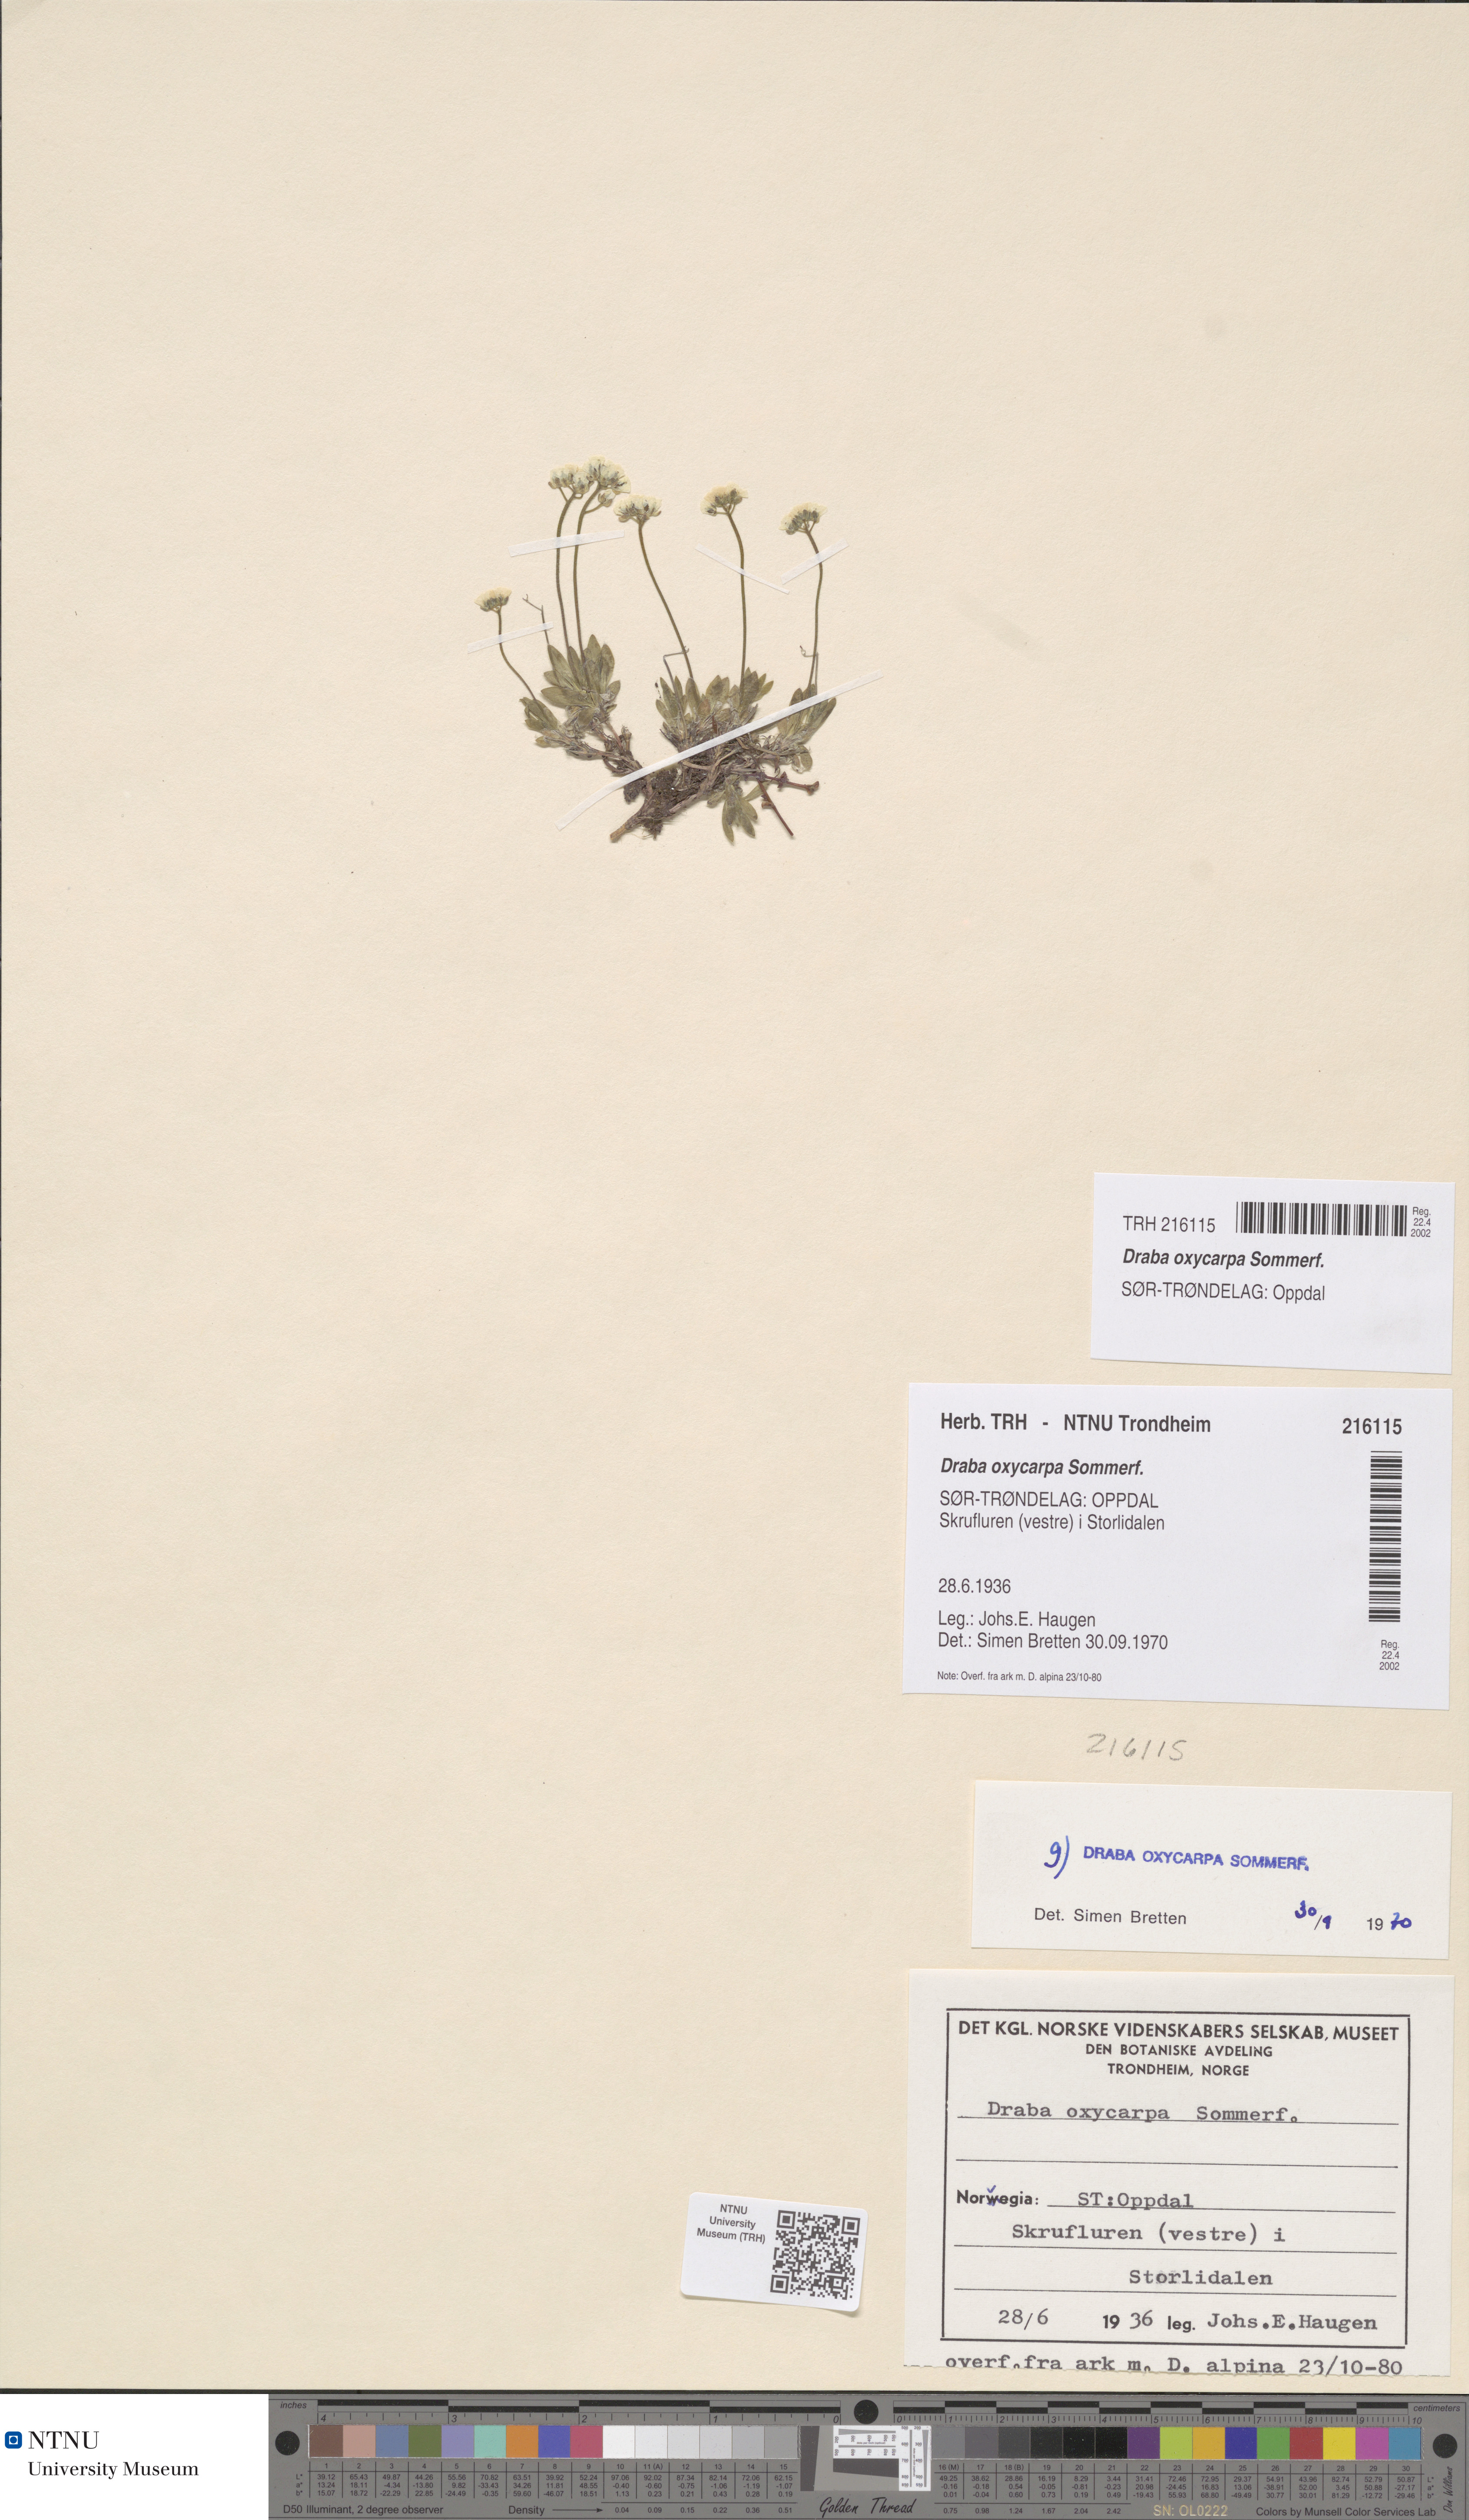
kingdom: Plantae
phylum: Tracheophyta
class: Magnoliopsida
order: Brassicales
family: Brassicaceae
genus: Draba
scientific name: Draba oxycarpa
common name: Sharp-fruited whitlow-grass
